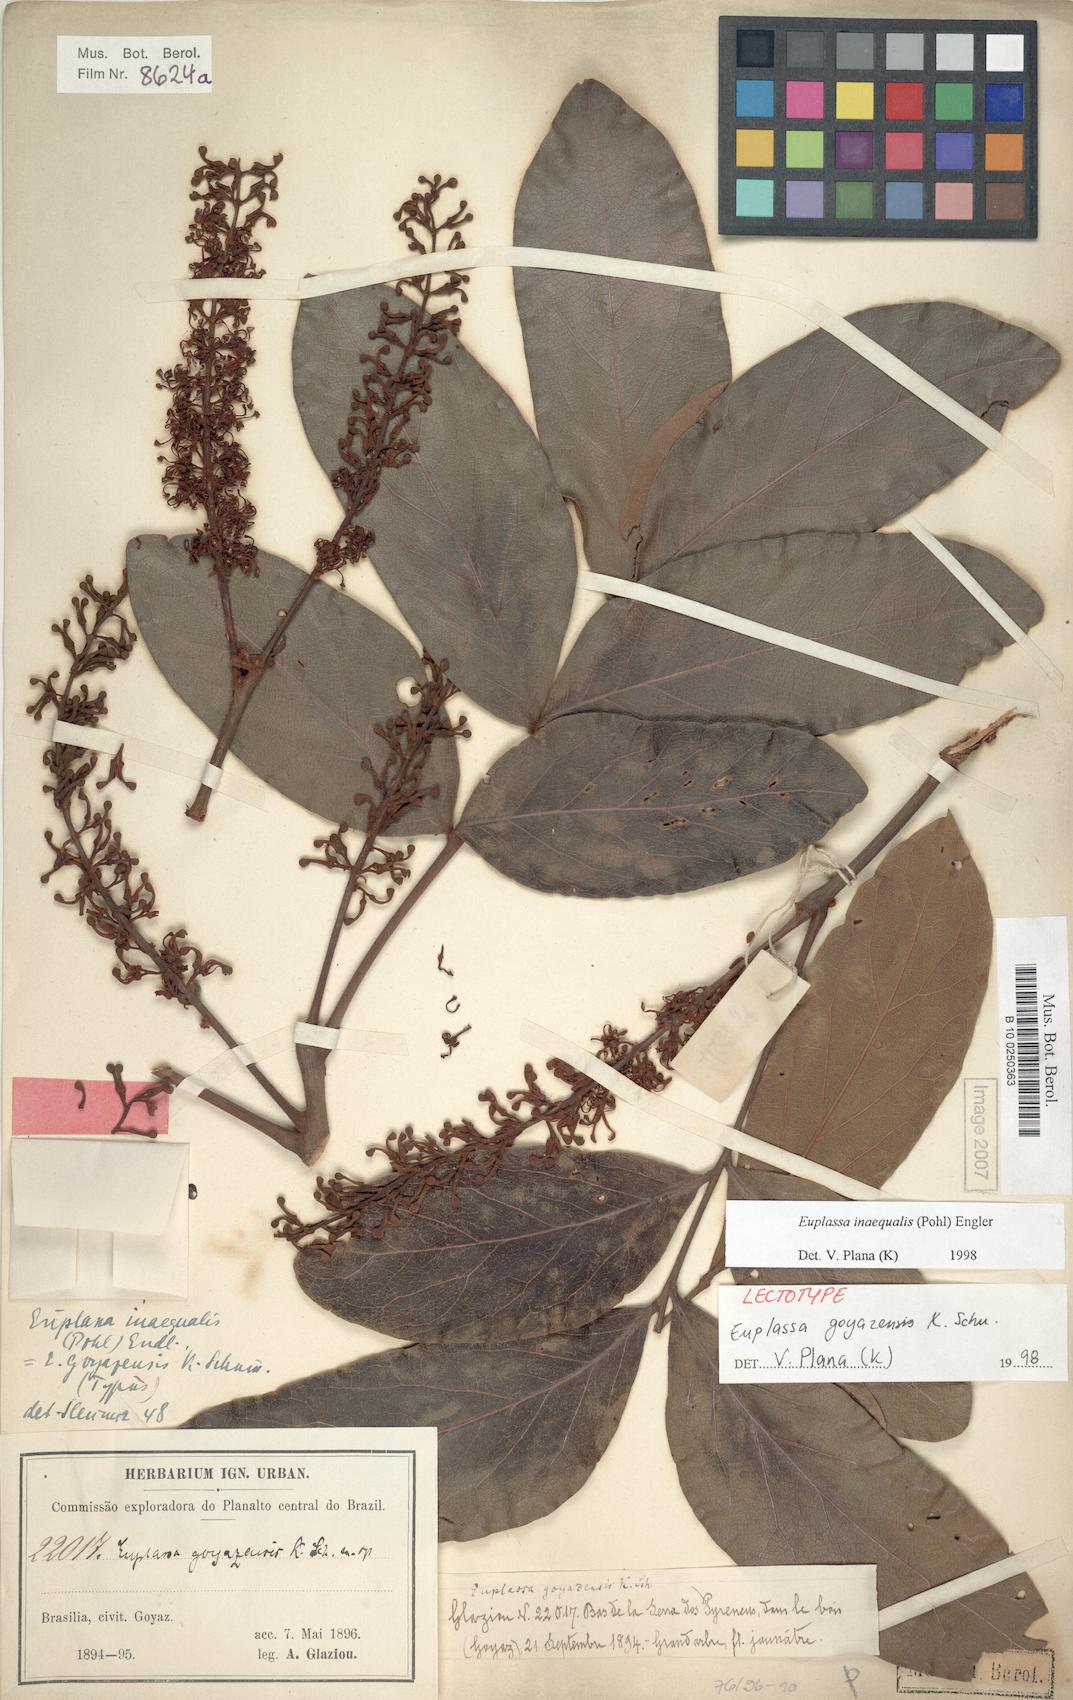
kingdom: Plantae
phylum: Tracheophyta
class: Magnoliopsida
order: Proteales
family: Proteaceae
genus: Euplassa
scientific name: Euplassa inaequalis
